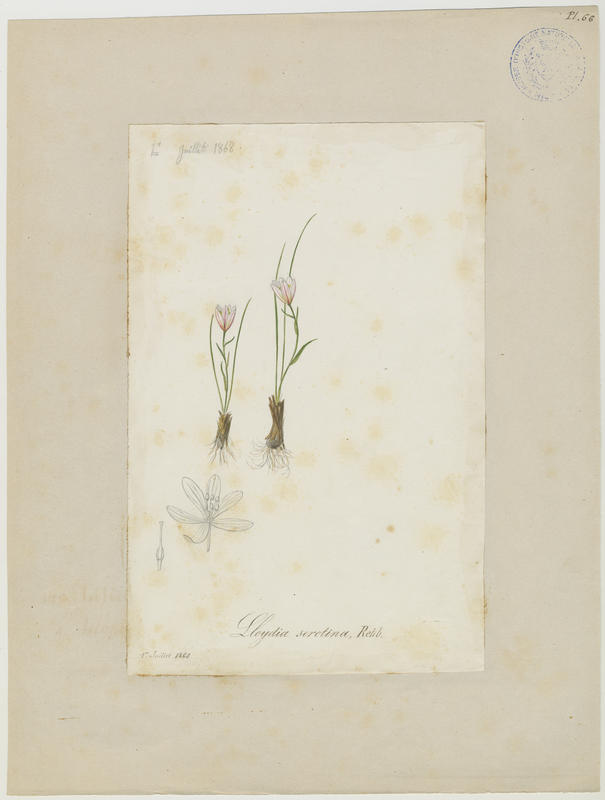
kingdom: Plantae
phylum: Tracheophyta
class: Liliopsida
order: Liliales
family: Liliaceae
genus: Gagea
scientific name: Gagea serotina
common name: Snowdon lily
